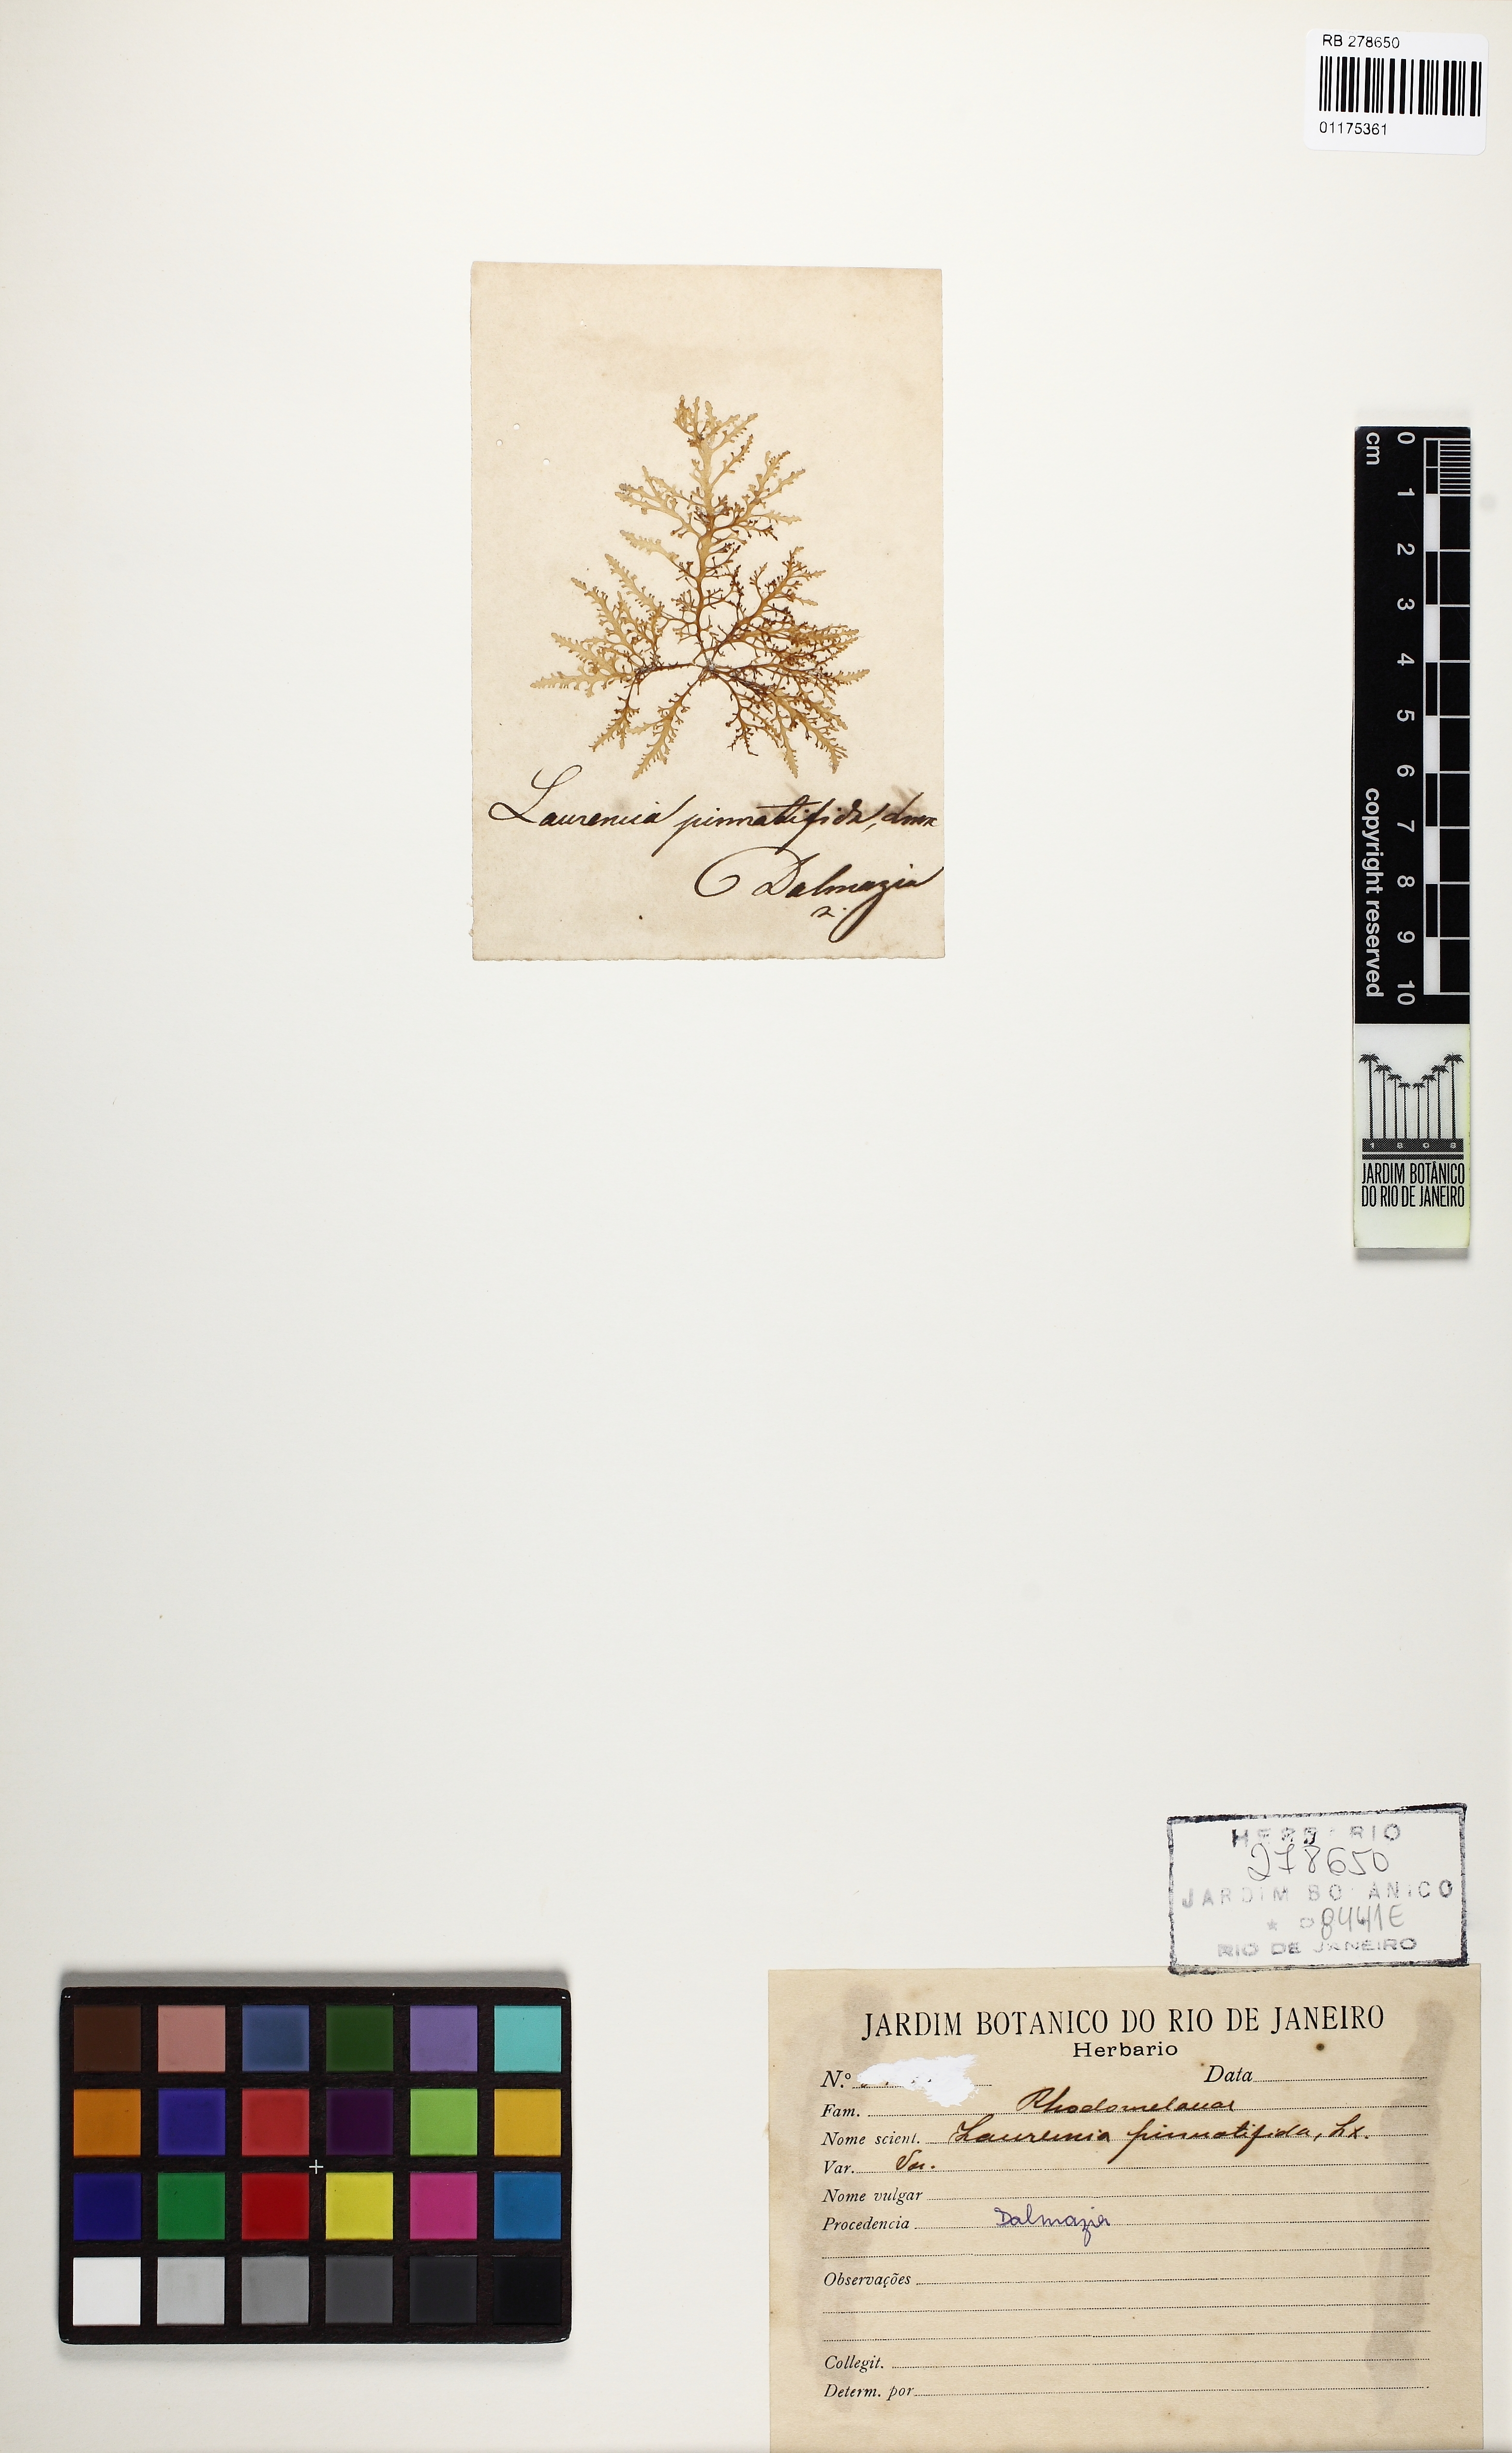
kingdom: Plantae
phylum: Rhodophyta
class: Florideophyceae
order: Ceramiales
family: Rhodomelaceae
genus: Laurencia
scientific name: Laurencia Osmundea pinnatifida
